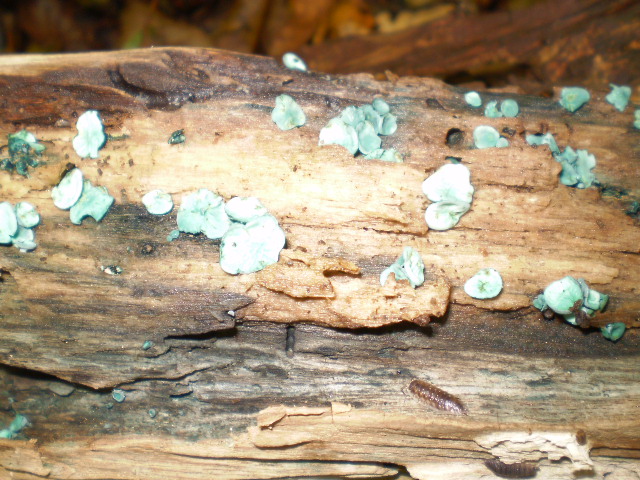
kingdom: Fungi
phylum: Ascomycota
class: Leotiomycetes
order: Helotiales
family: Chlorociboriaceae
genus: Chlorociboria
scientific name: Chlorociboria aeruginascens
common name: almindelig grønskive
